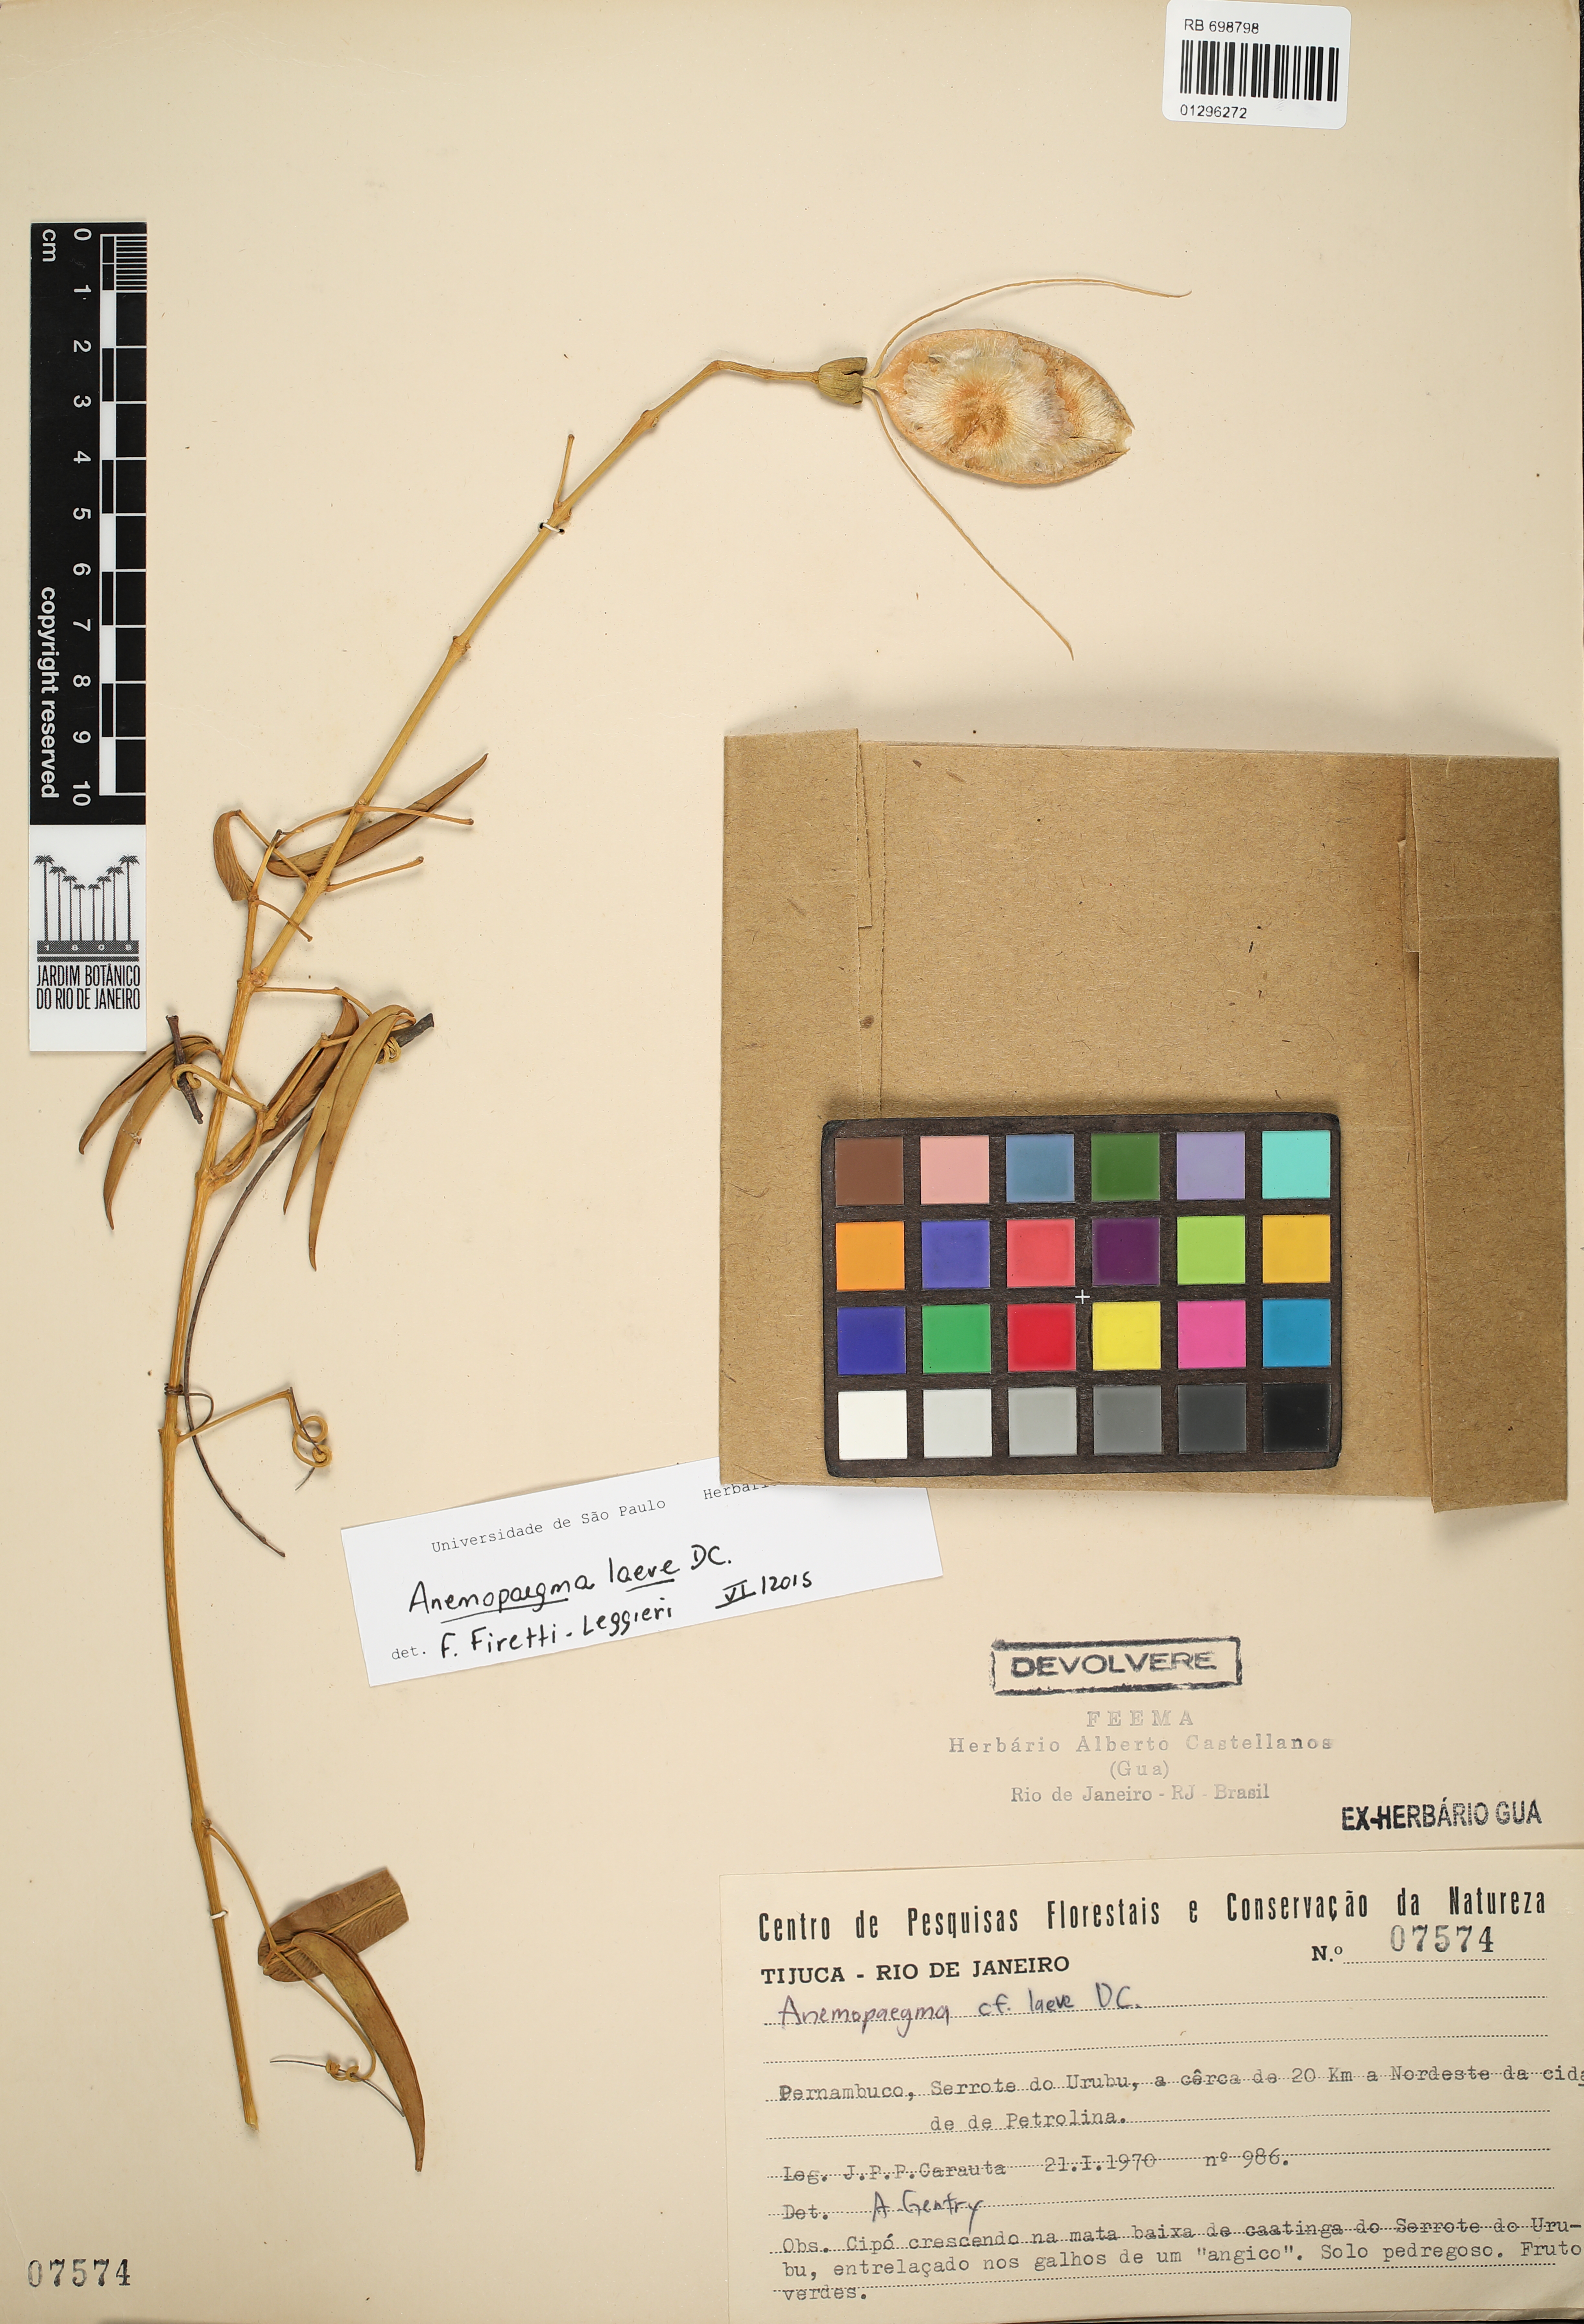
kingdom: Plantae
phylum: Tracheophyta
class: Magnoliopsida
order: Lamiales
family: Bignoniaceae
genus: Anemopaegma
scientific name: Anemopaegma laeve
